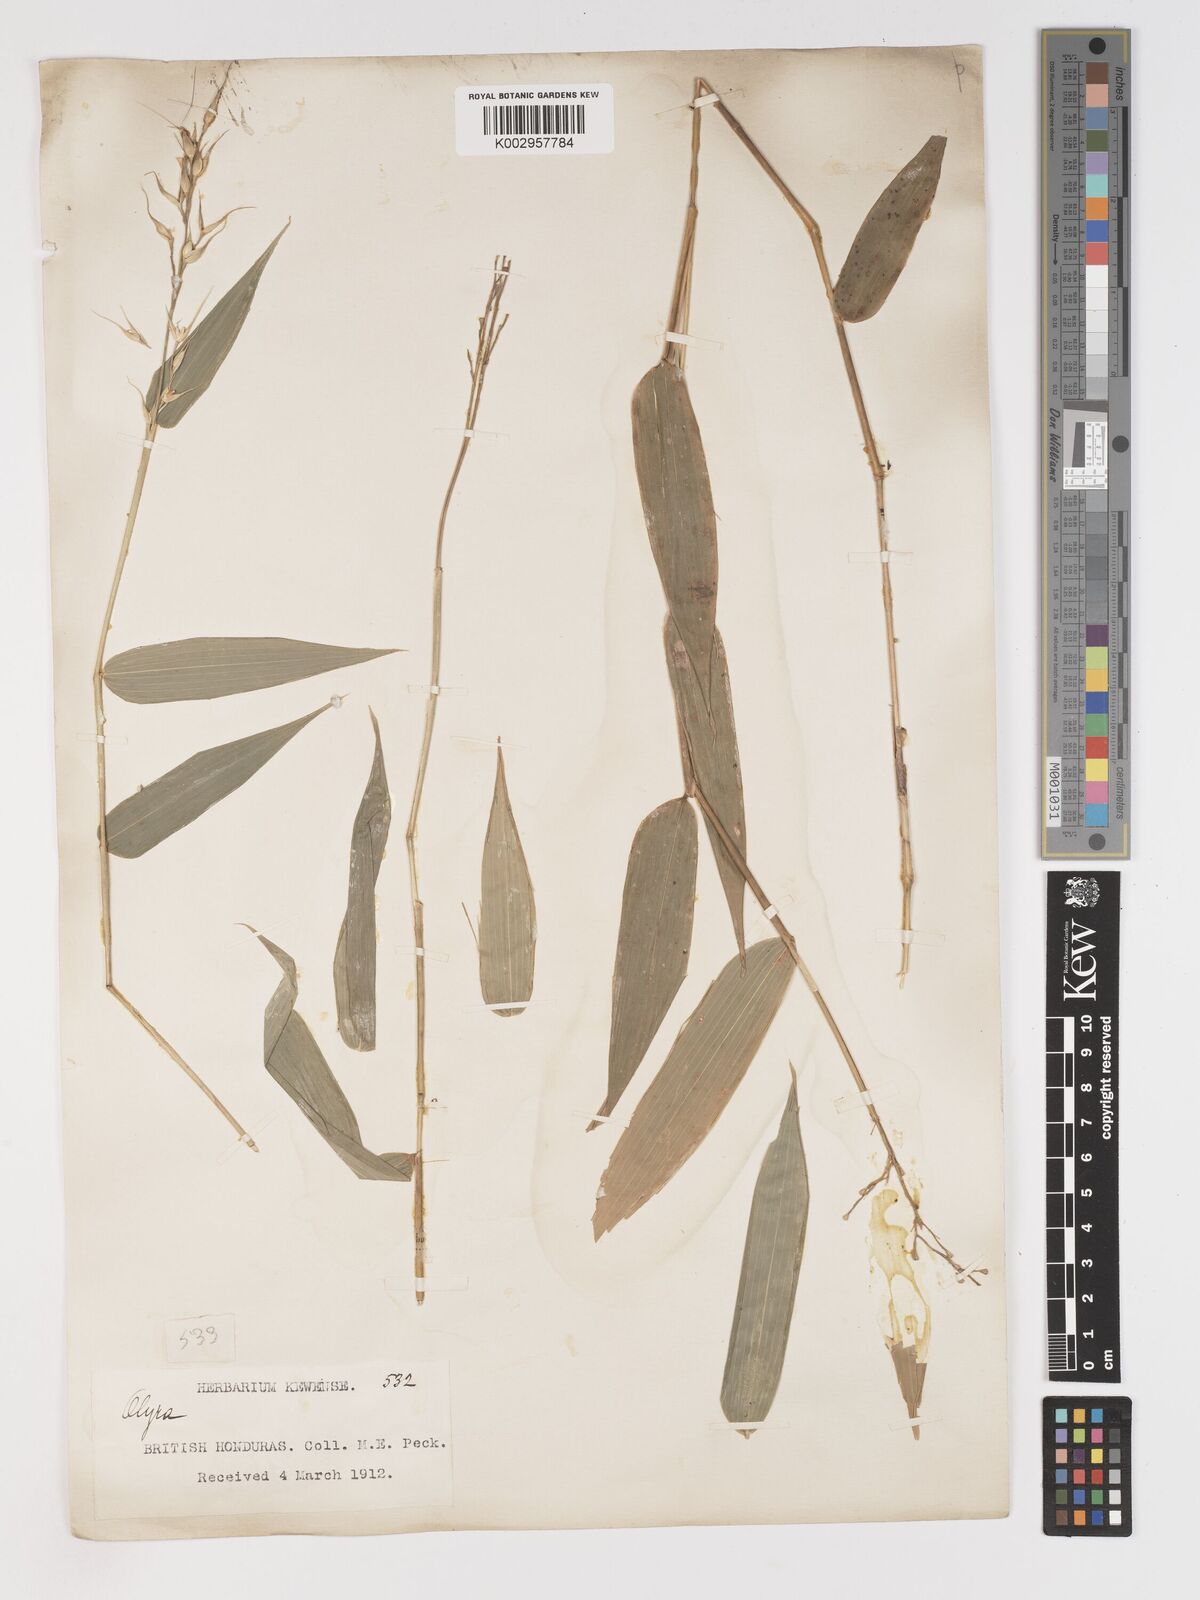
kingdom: Plantae
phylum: Tracheophyta
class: Liliopsida
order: Poales
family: Poaceae
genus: Olyra
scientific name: Olyra latifolia
